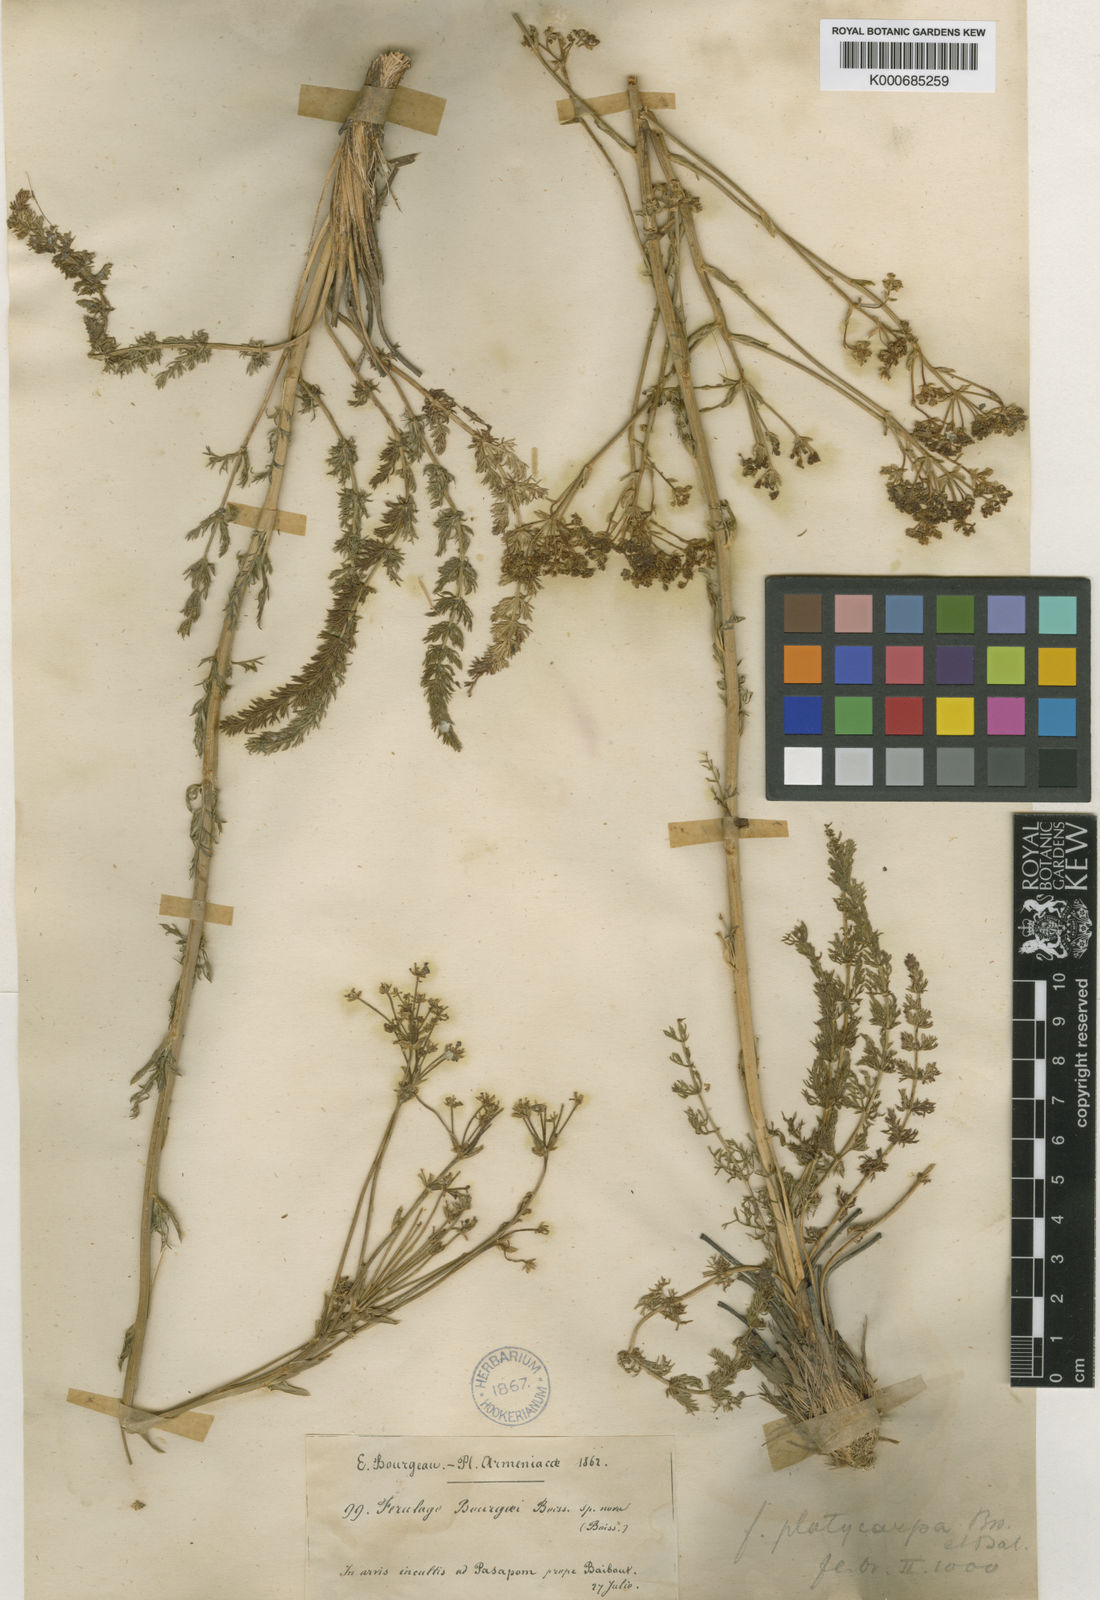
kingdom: Plantae
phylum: Tracheophyta
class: Magnoliopsida
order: Apiales
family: Apiaceae
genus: Ferulago
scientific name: Ferulago platycarpa
